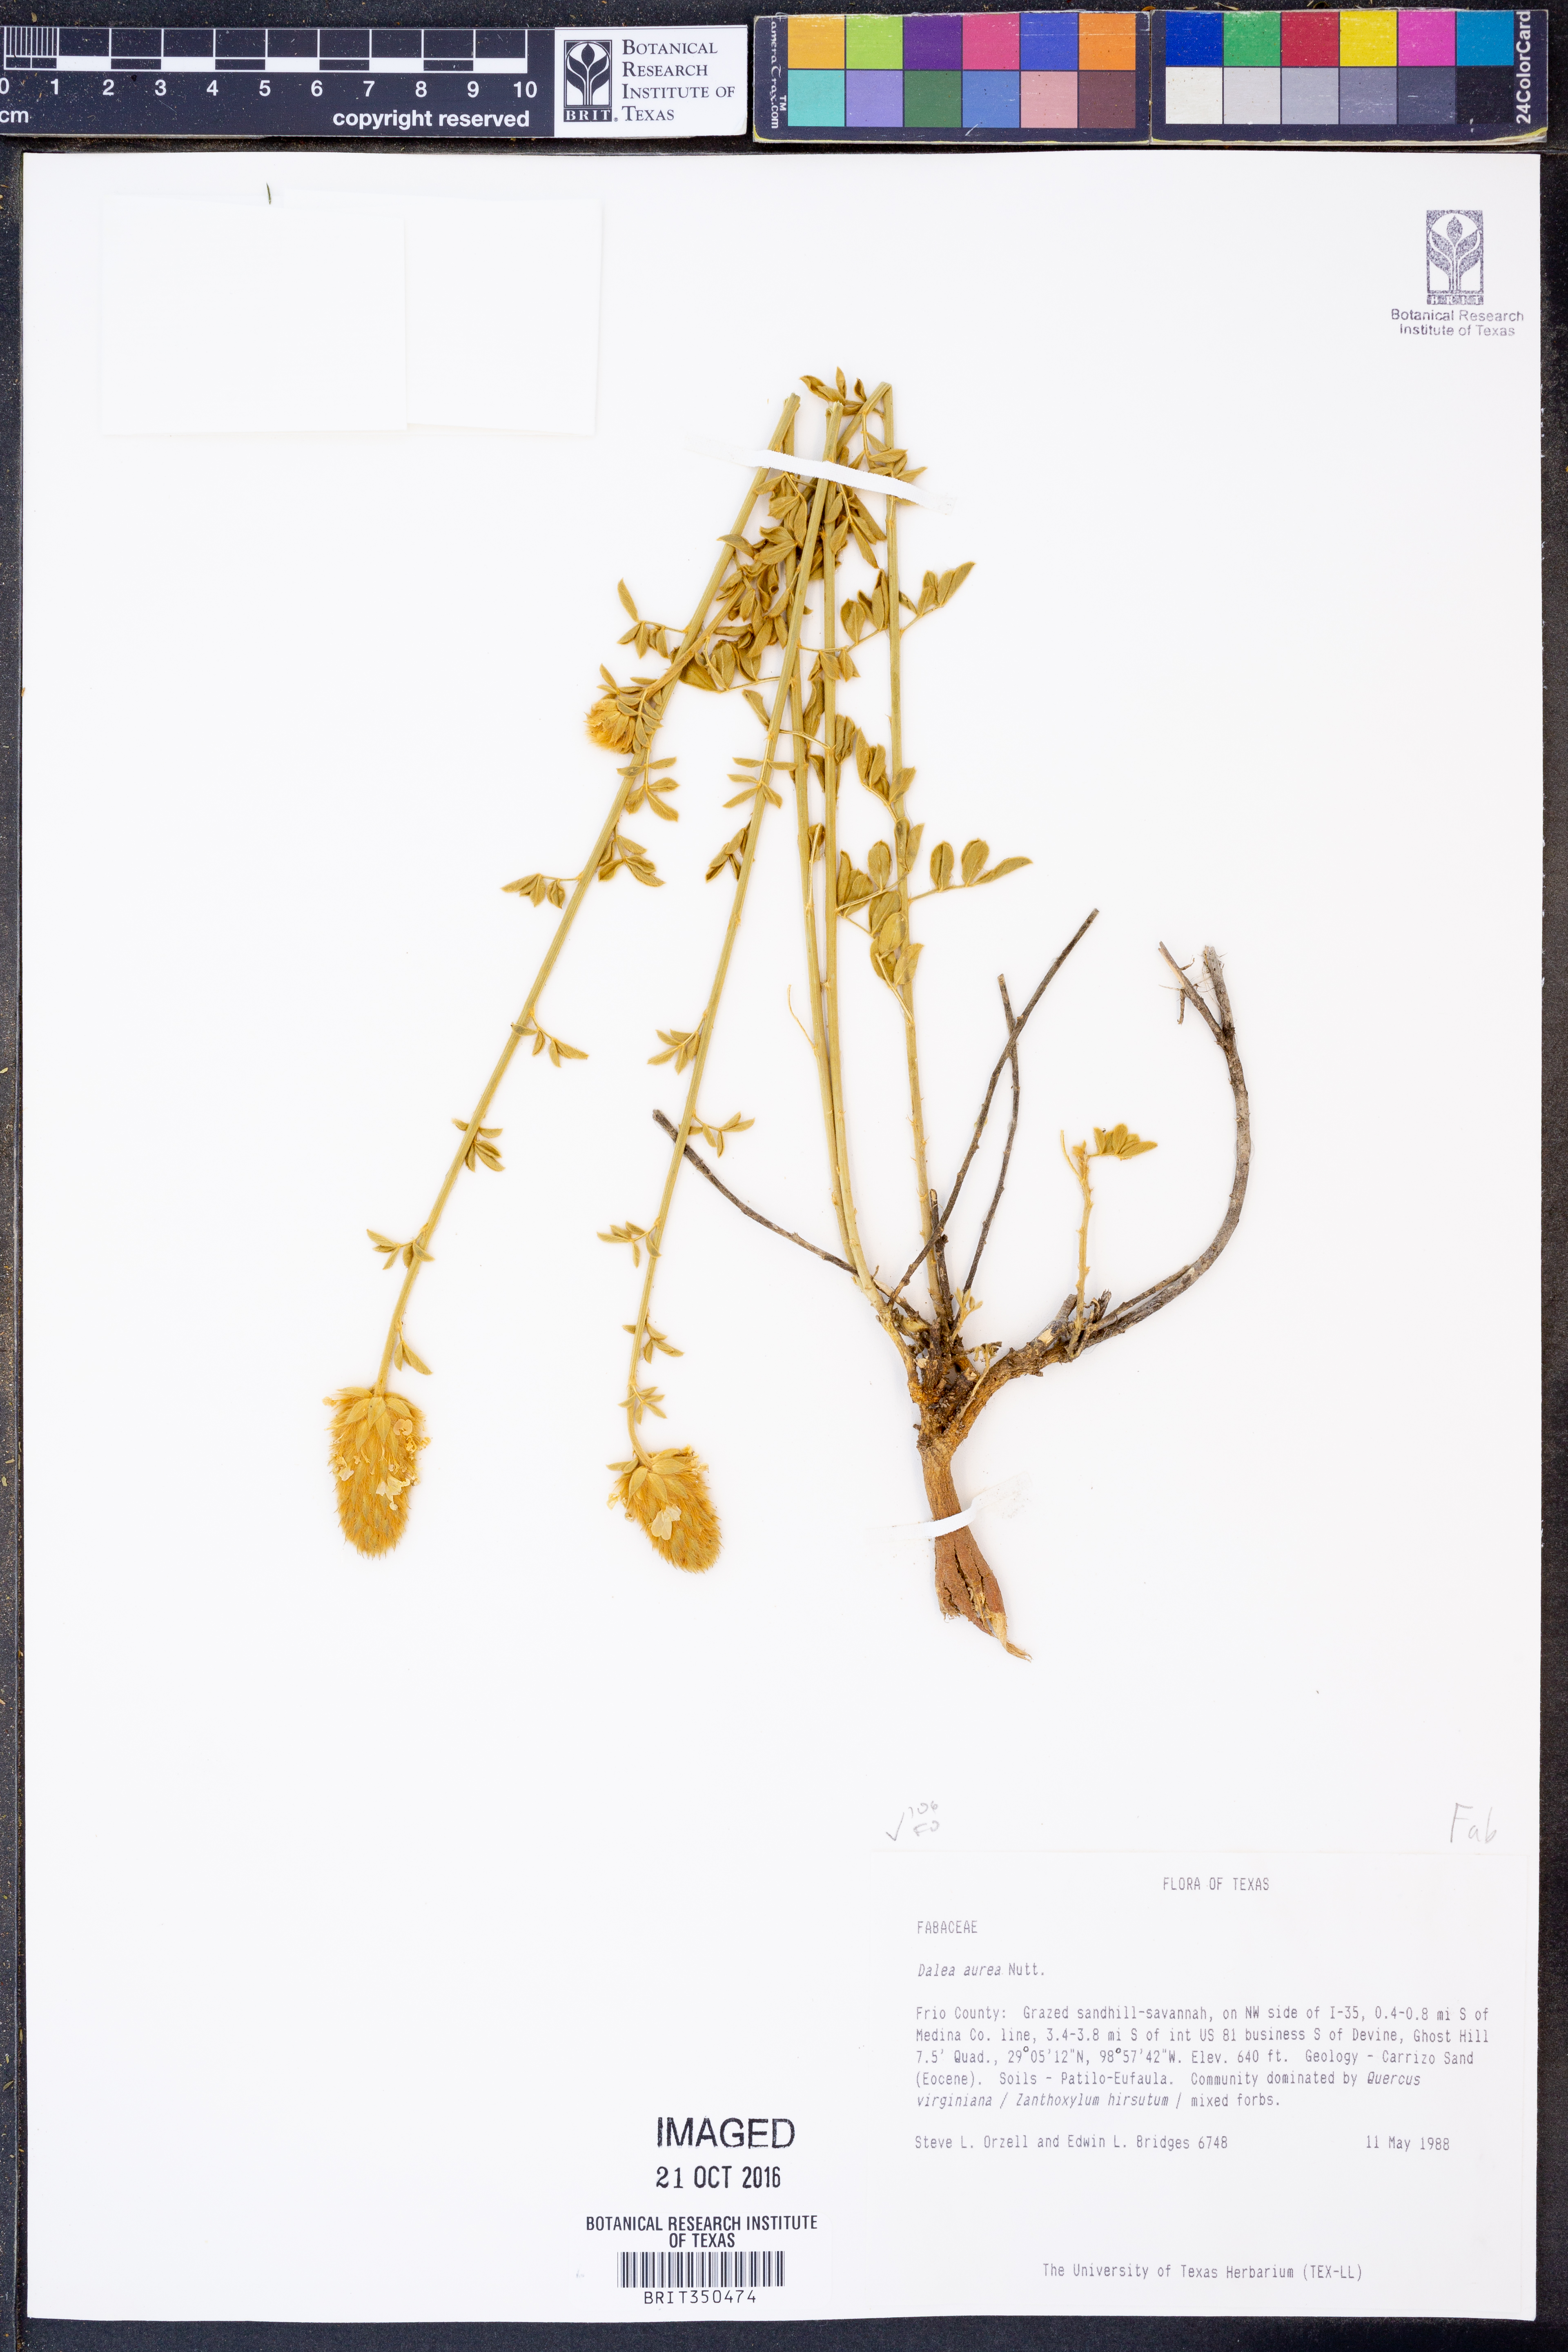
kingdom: Plantae
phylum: Tracheophyta
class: Magnoliopsida
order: Fabales
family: Fabaceae
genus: Dalea
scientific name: Dalea aurea
